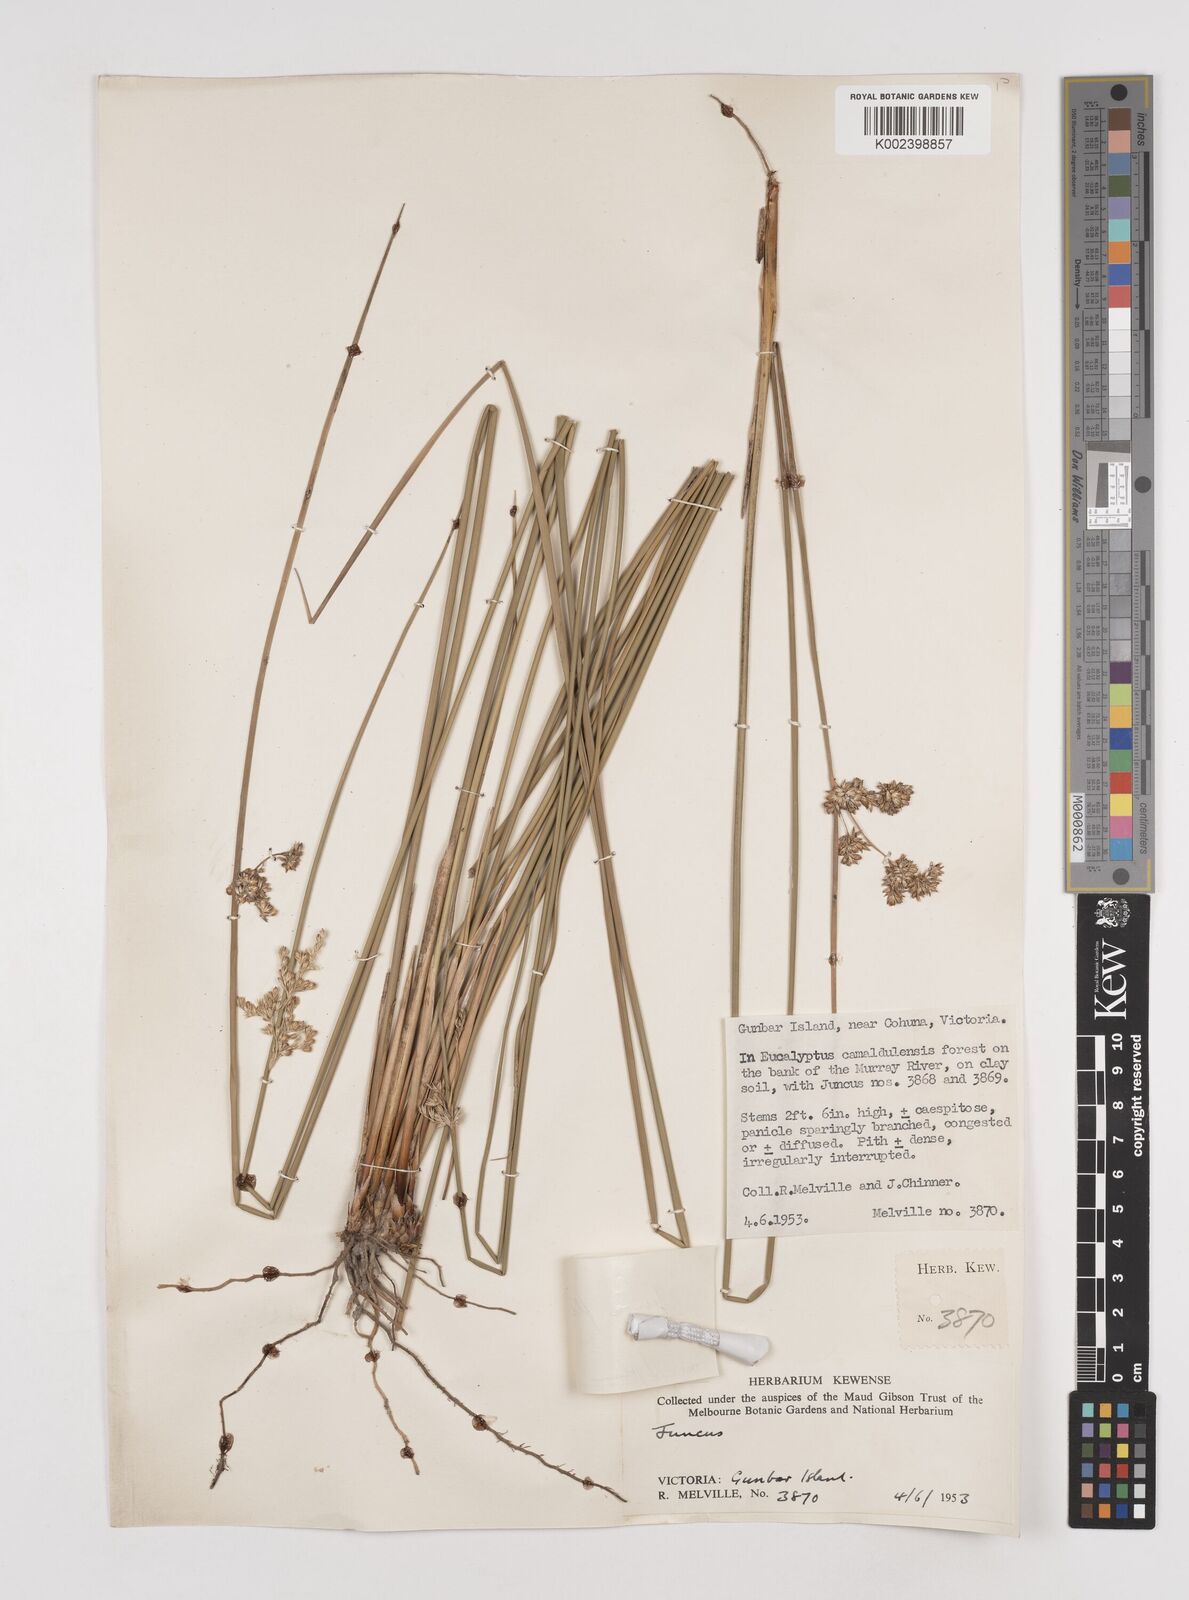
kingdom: Plantae
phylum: Tracheophyta
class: Liliopsida
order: Poales
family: Juncaceae
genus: Juncus
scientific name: Juncus flavidus
